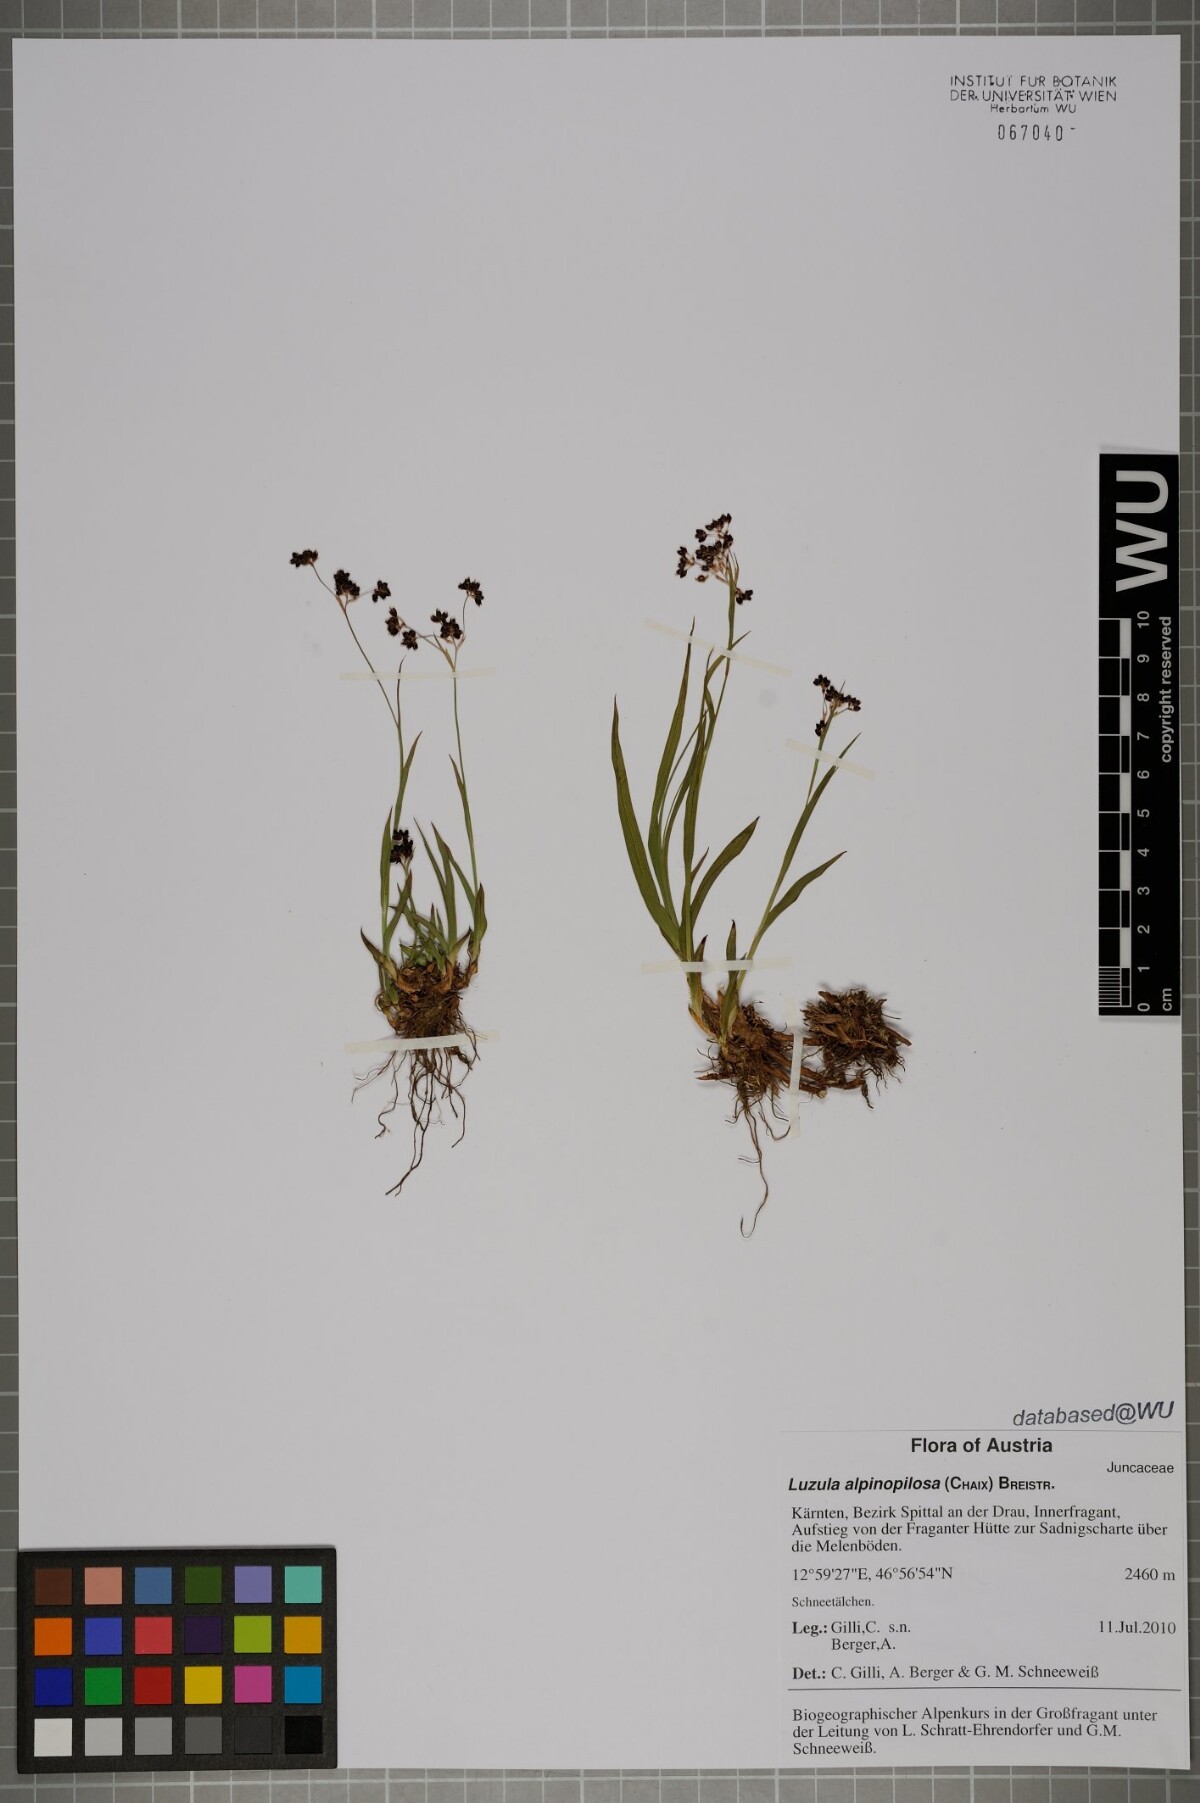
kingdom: Plantae
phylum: Tracheophyta
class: Liliopsida
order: Poales
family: Juncaceae
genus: Luzula
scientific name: Luzula alpinopilosa
